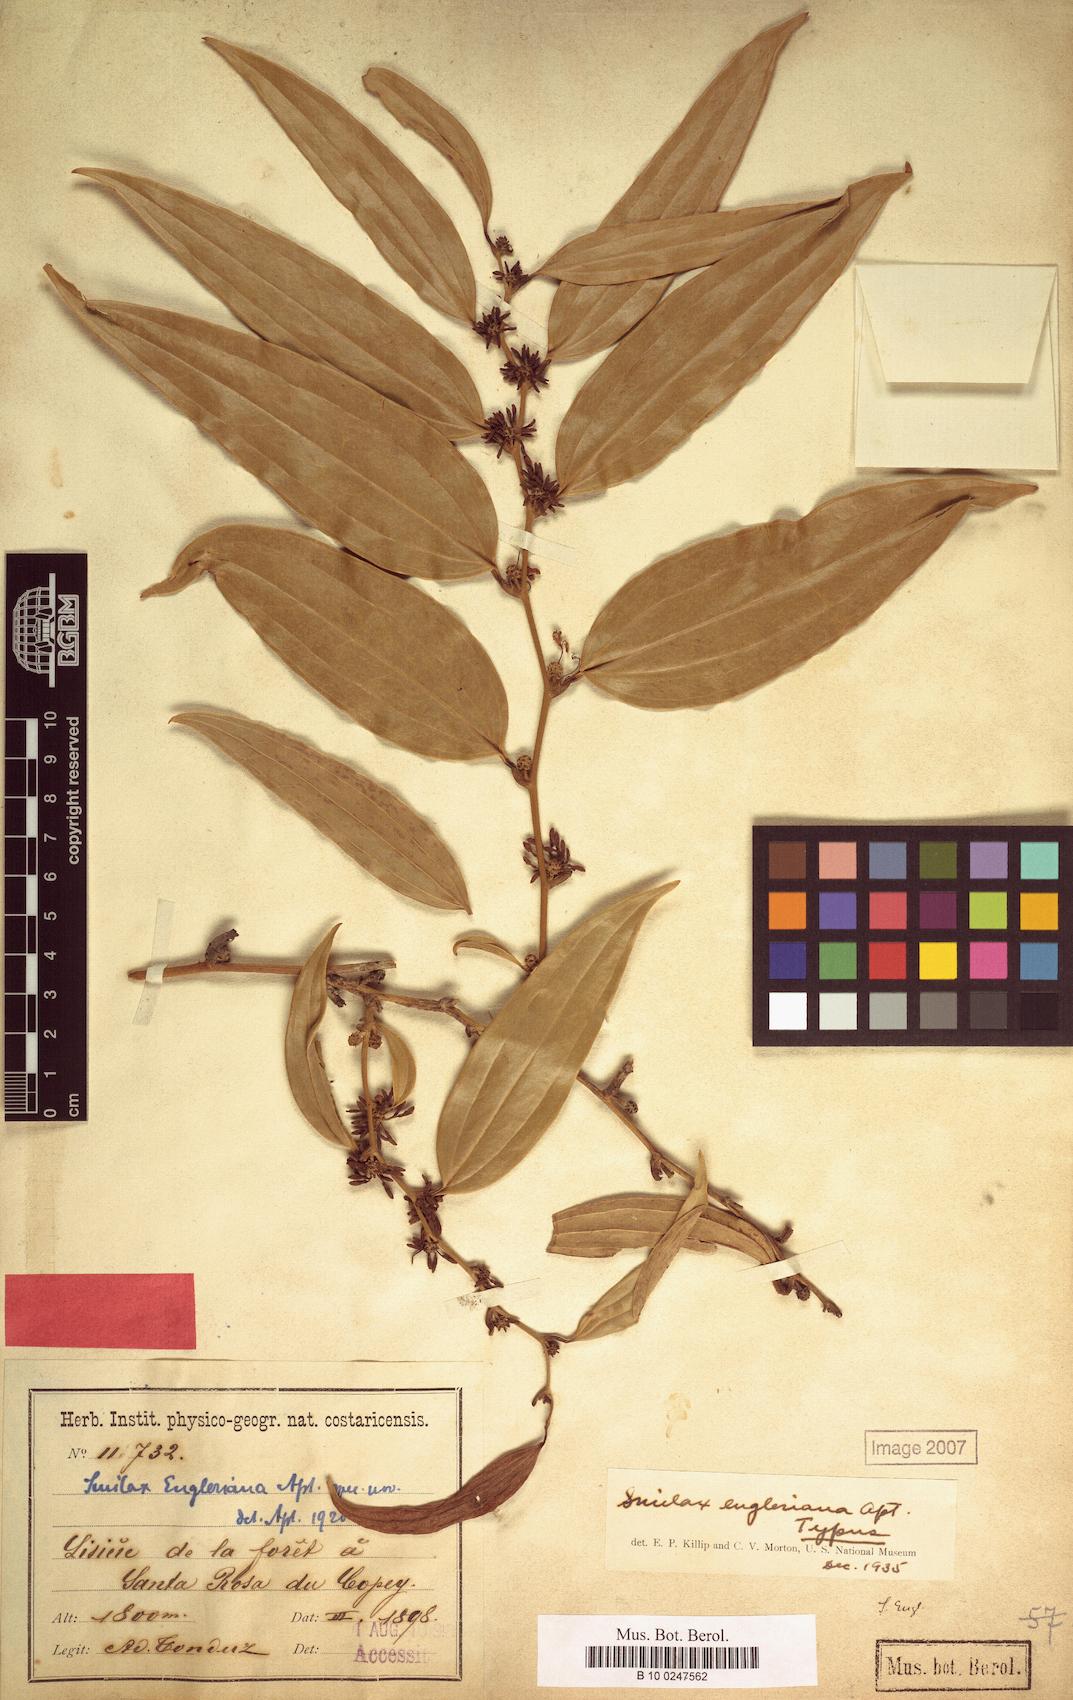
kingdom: Plantae
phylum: Tracheophyta
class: Liliopsida
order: Liliales
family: Smilacaceae
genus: Smilax
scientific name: Smilax domingensis
